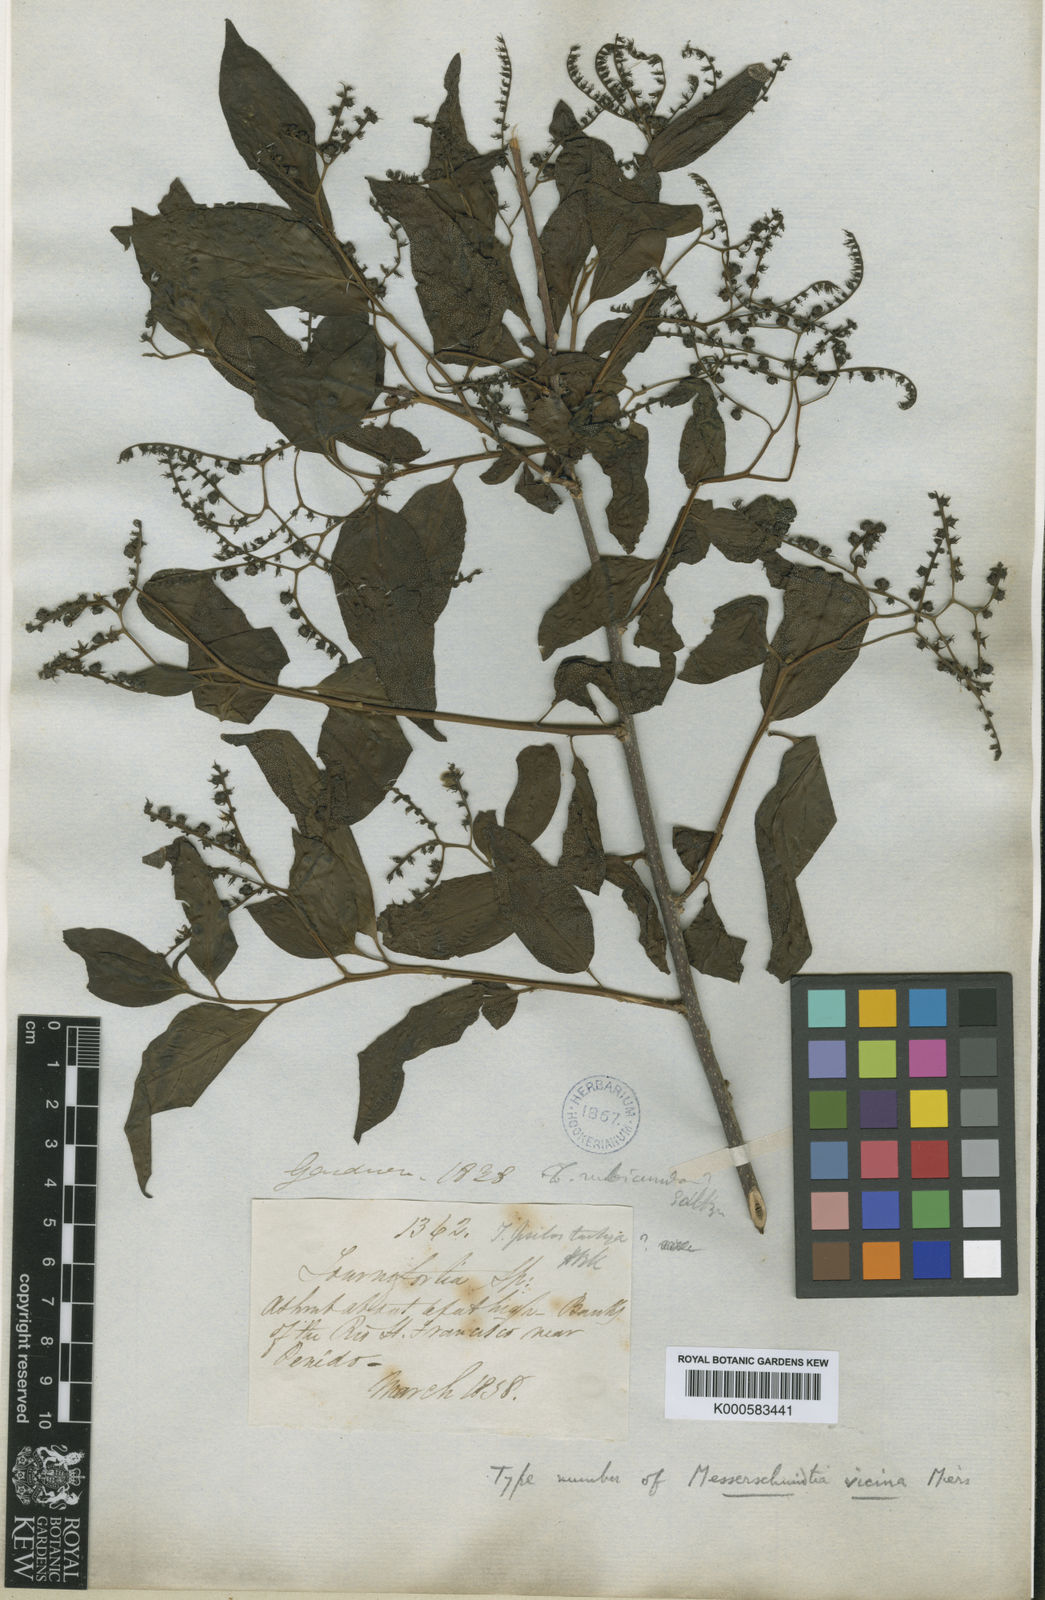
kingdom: Plantae
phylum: Tracheophyta
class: Magnoliopsida
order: Boraginales
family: Heliotropiaceae
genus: Myriopus
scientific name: Myriopus rubicundus
